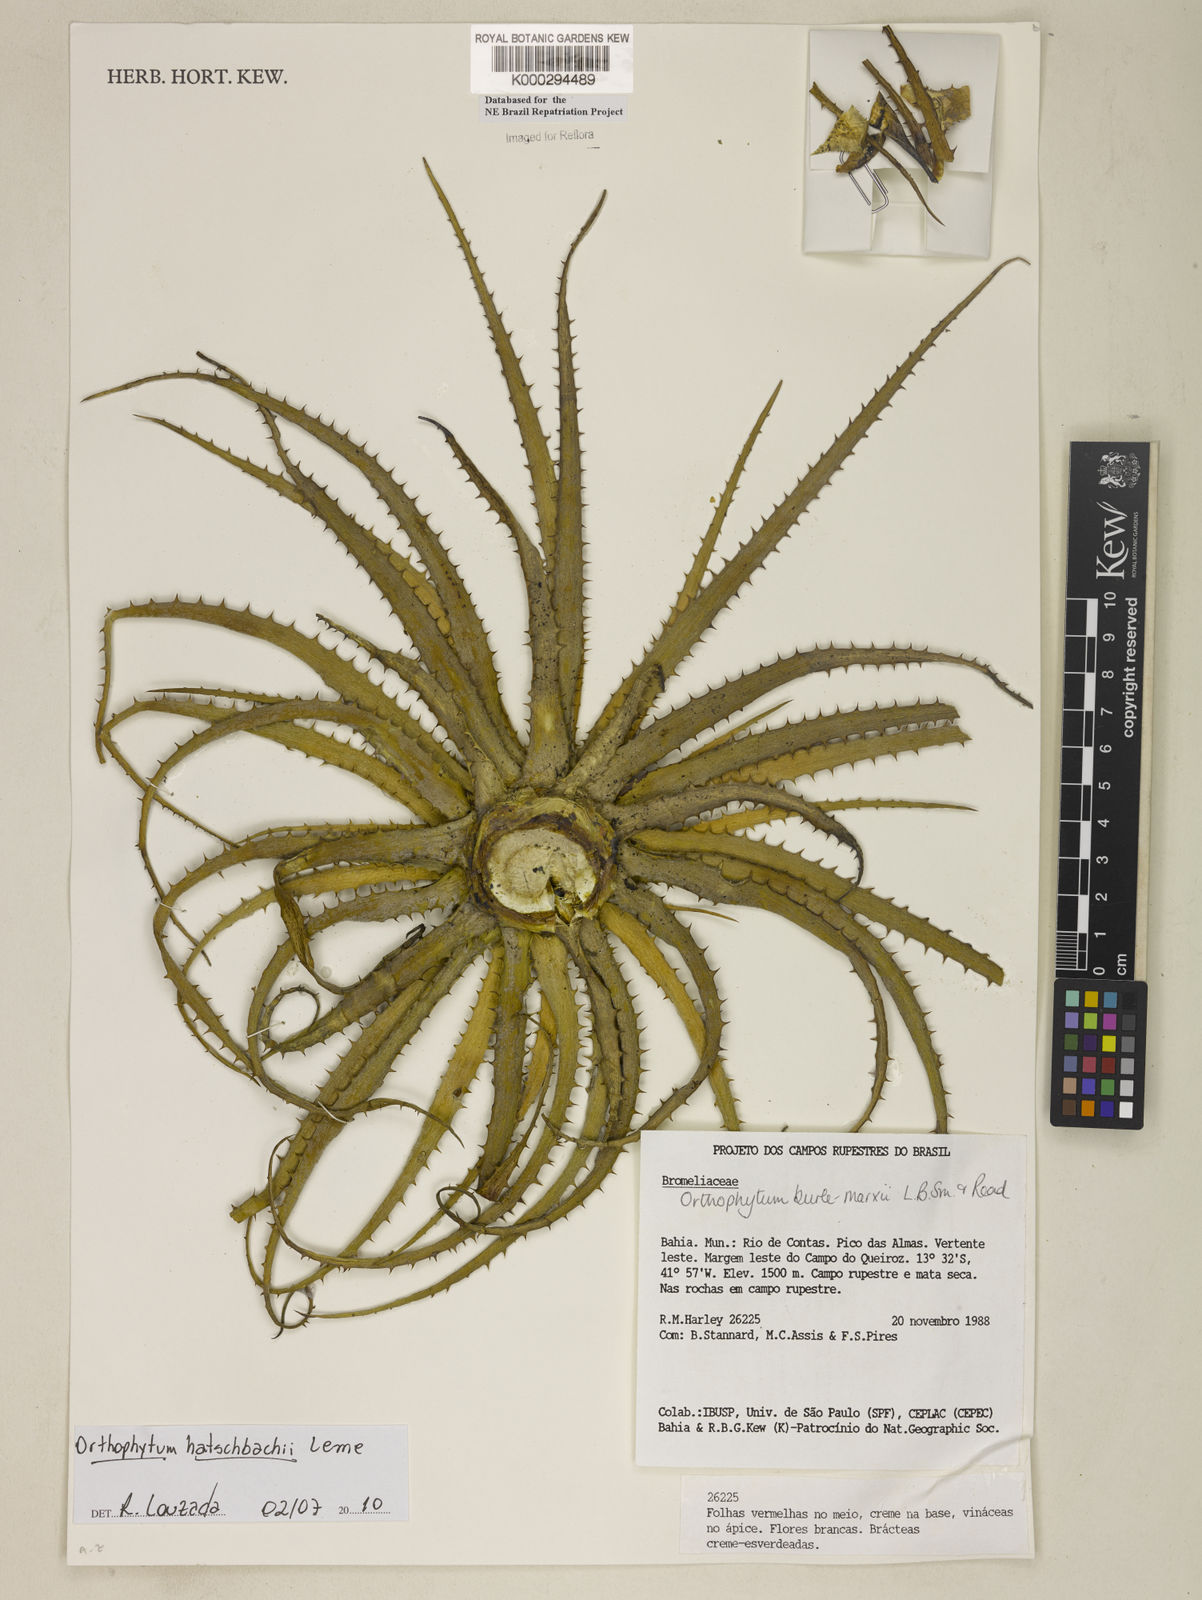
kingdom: Plantae
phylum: Tracheophyta
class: Liliopsida
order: Poales
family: Bromeliaceae
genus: Sincoraea
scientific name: Sincoraea burle-marxii
